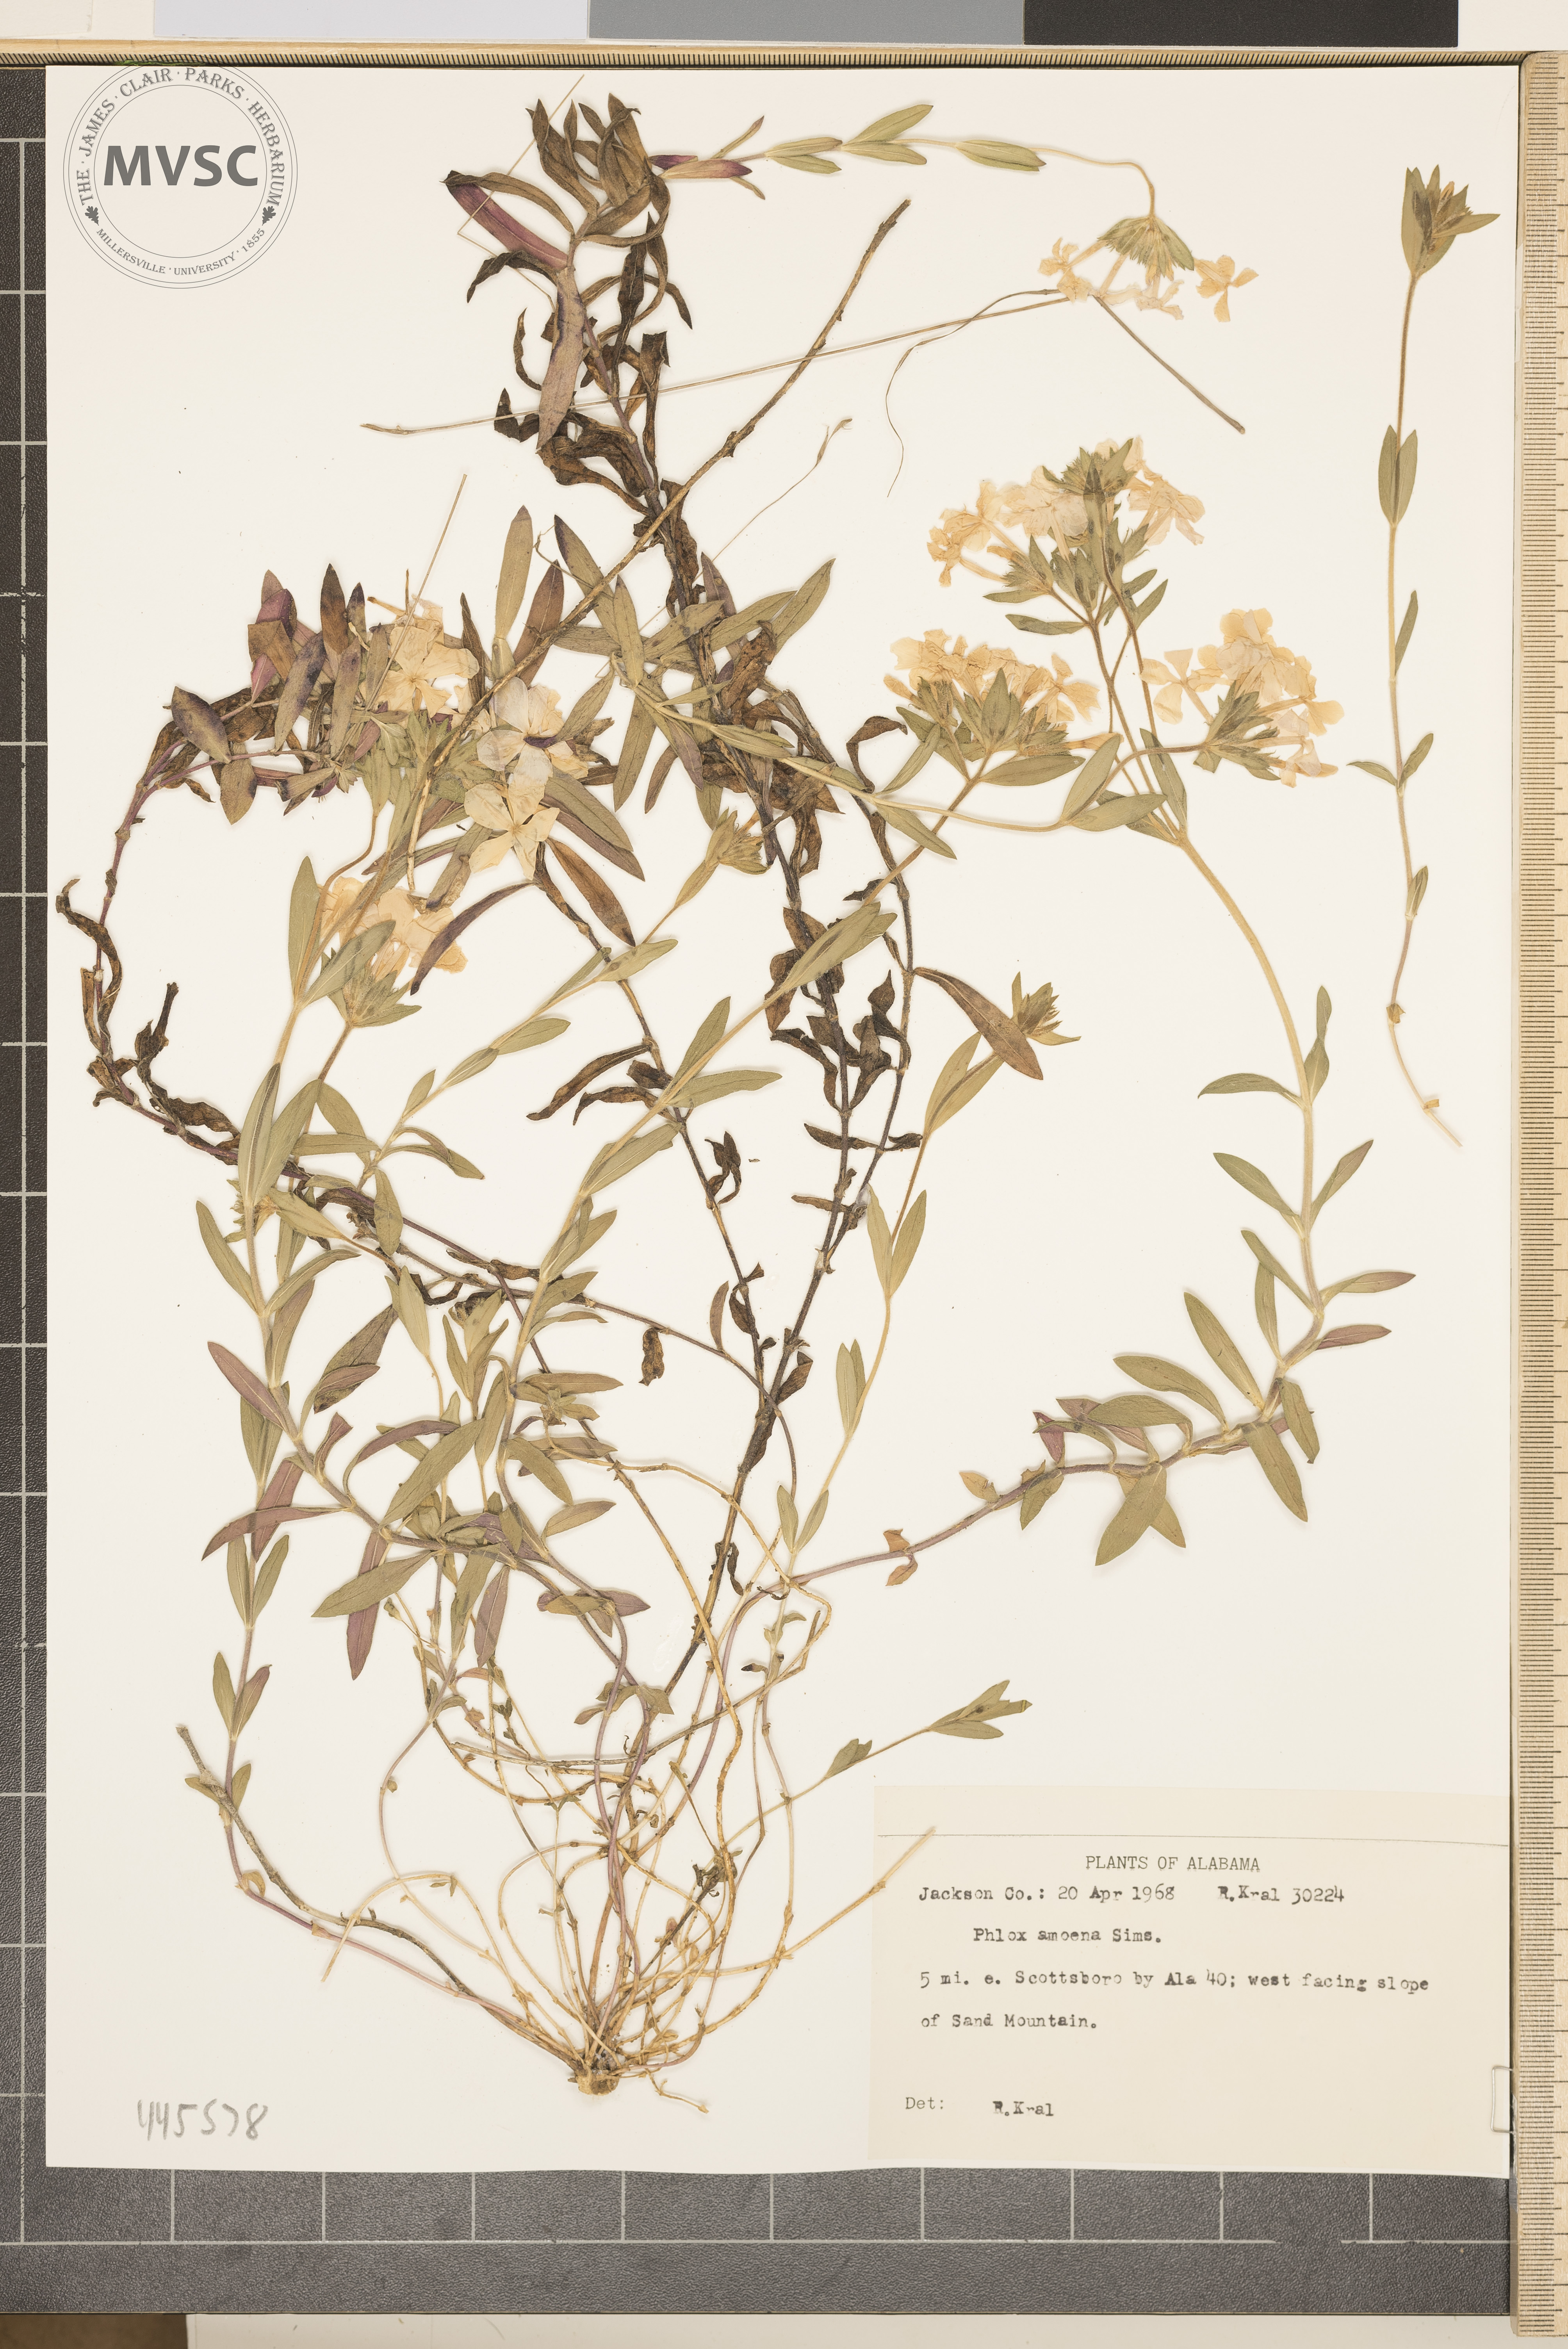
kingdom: Plantae
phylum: Tracheophyta
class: Magnoliopsida
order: Ericales
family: Polemoniaceae
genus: Phlox
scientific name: Phlox amoena
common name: Hairy phlox
